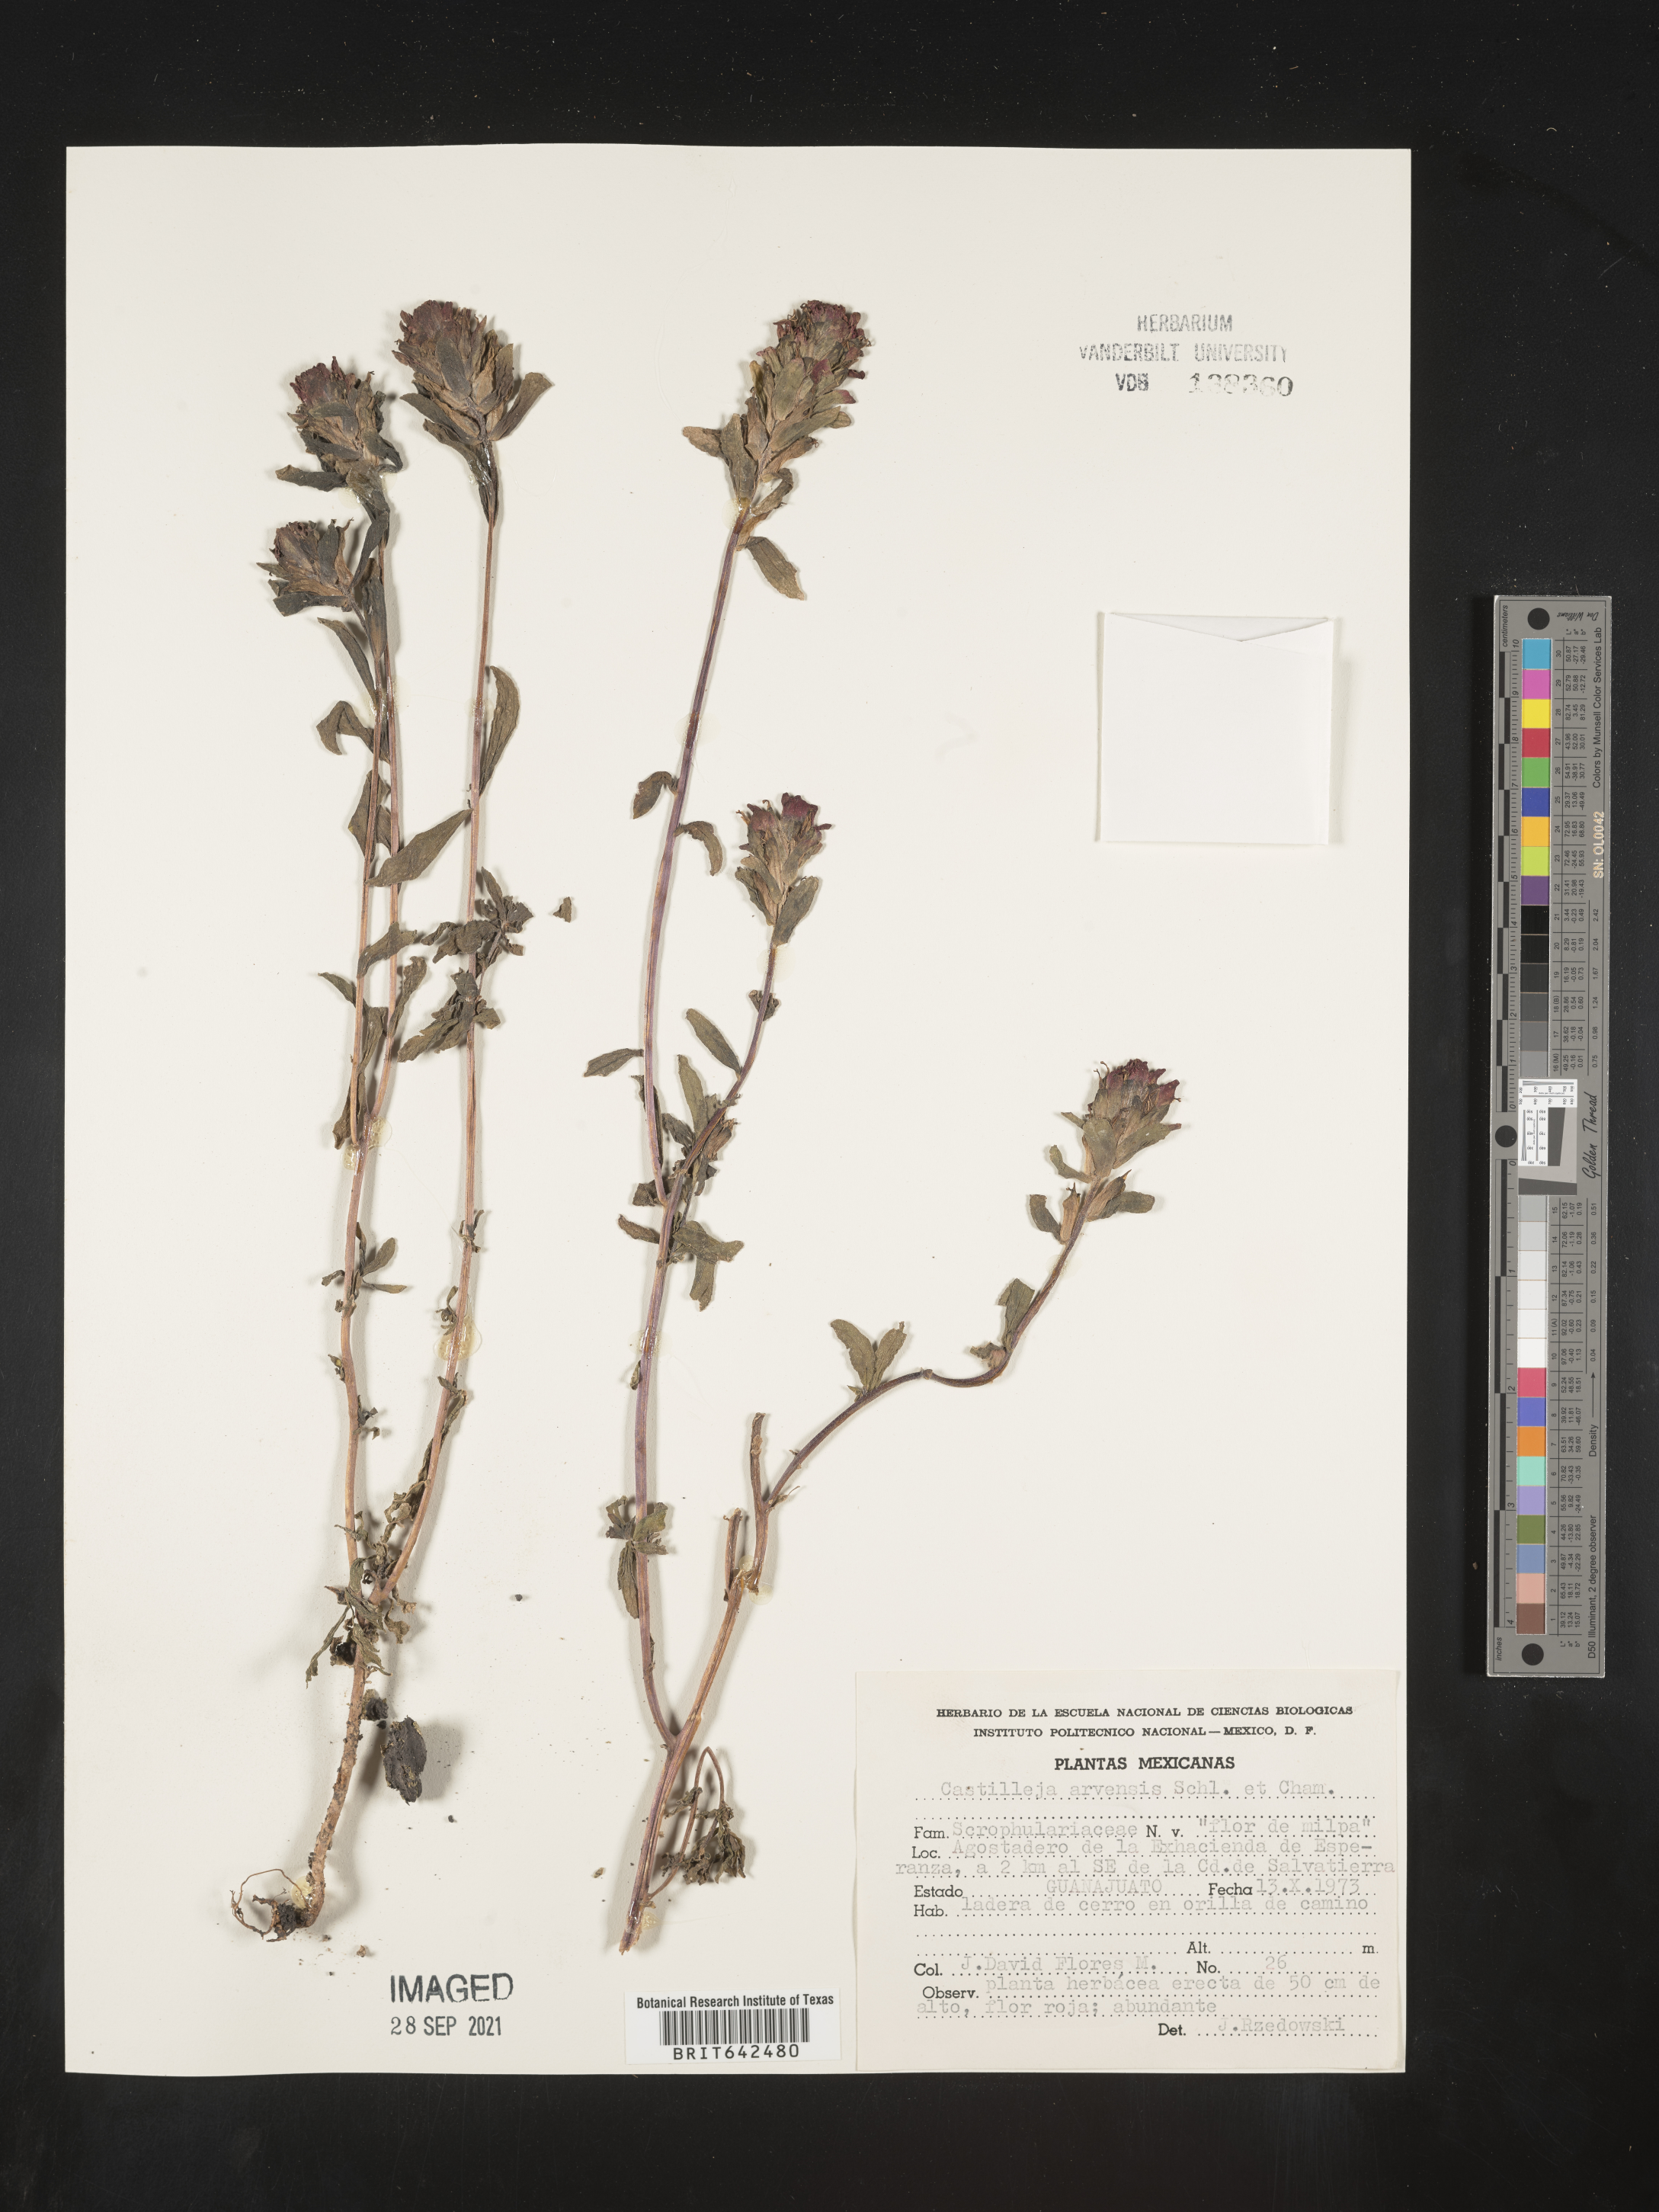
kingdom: Plantae
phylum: Tracheophyta
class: Magnoliopsida
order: Lamiales
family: Orobanchaceae
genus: Castilleja
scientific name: Castilleja
